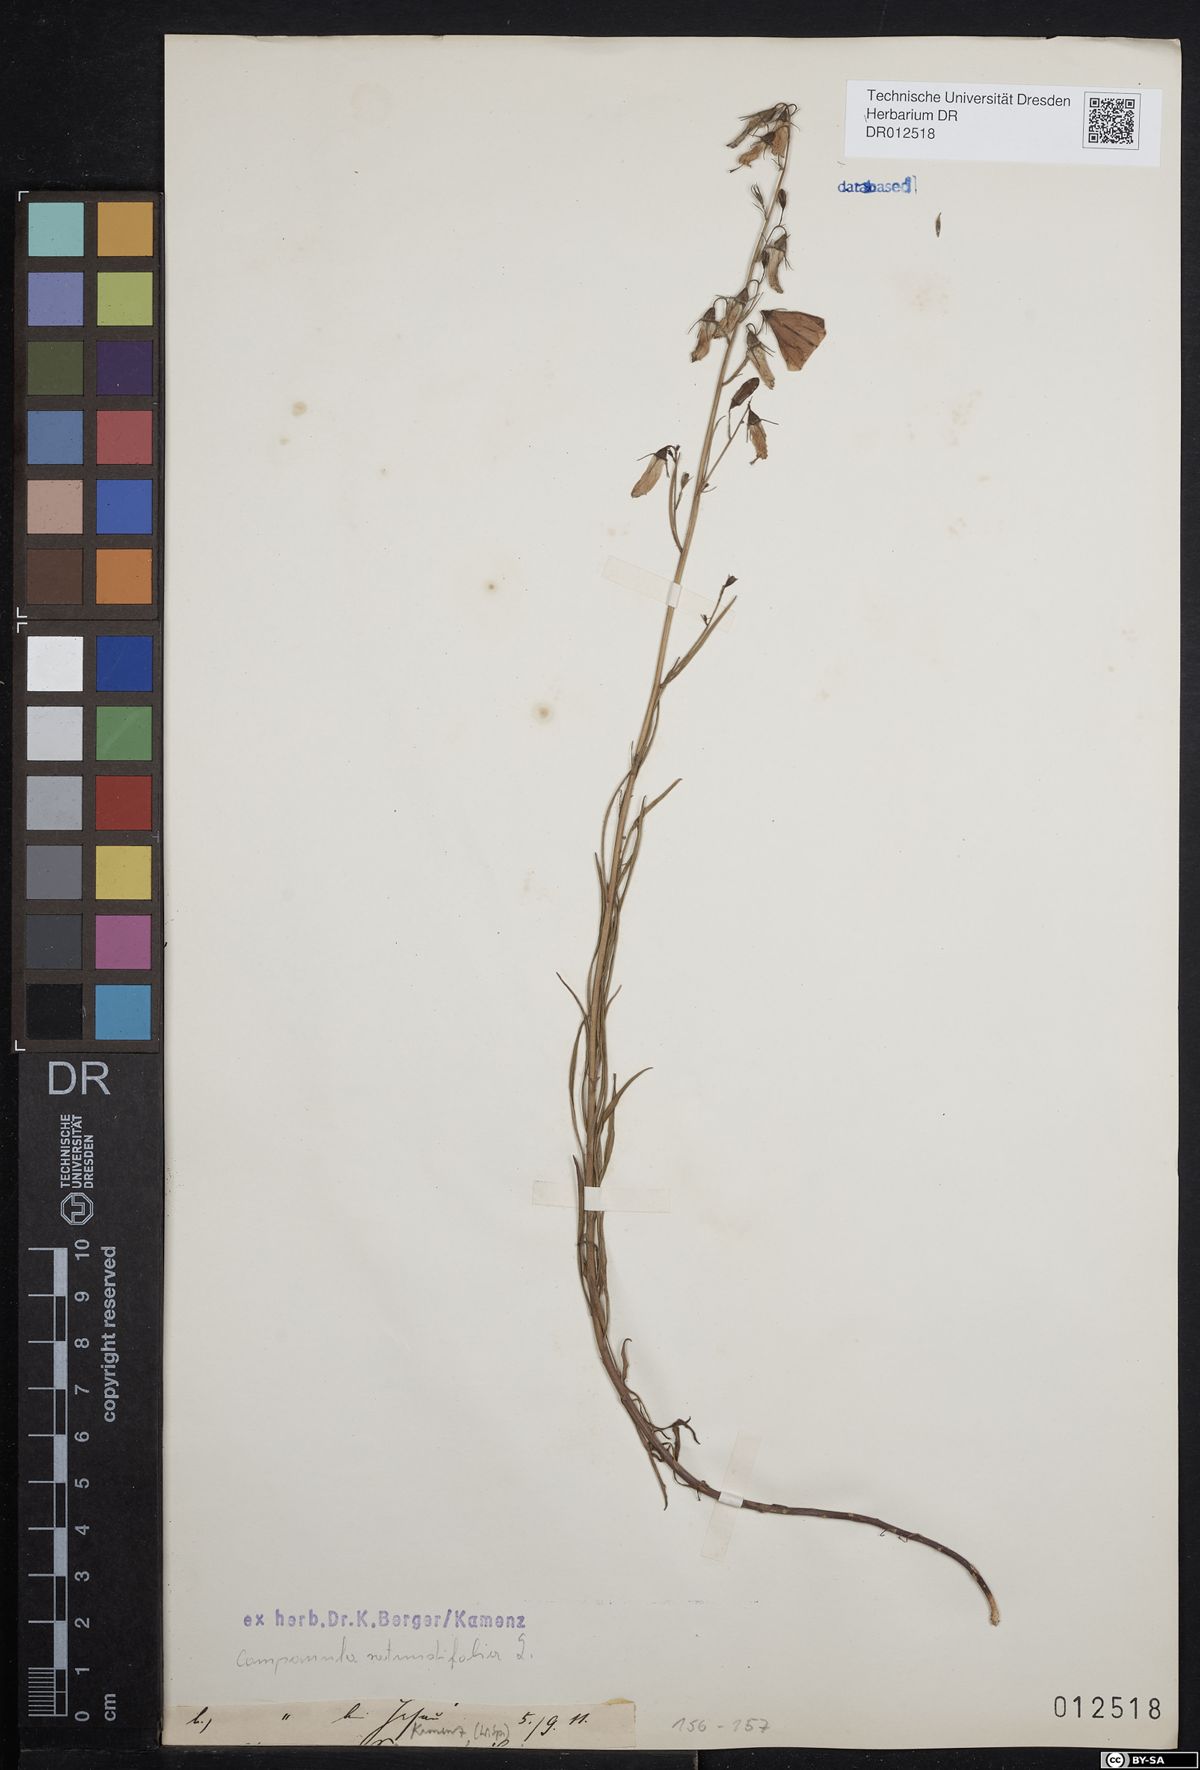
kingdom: Plantae
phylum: Tracheophyta
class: Magnoliopsida
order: Asterales
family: Campanulaceae
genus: Campanula
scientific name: Campanula rotundifolia
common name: Harebell
